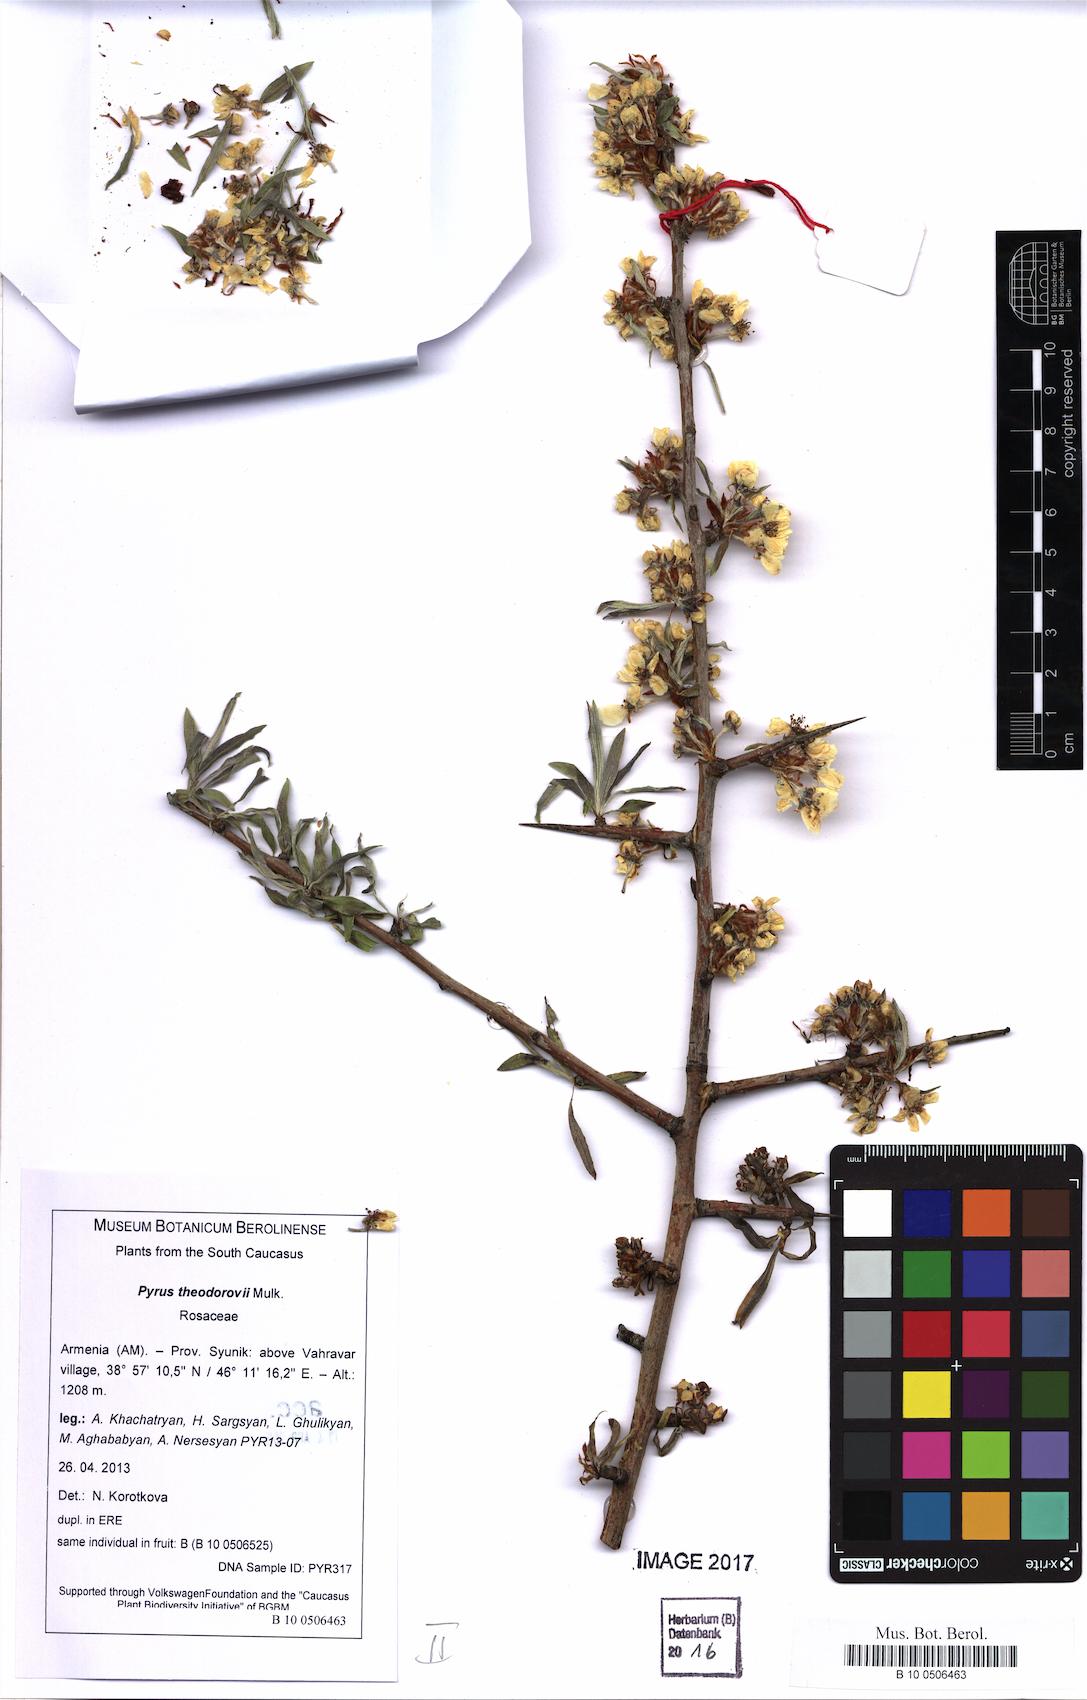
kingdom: Plantae
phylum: Tracheophyta
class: Magnoliopsida
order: Rosales
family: Rosaceae
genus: Pyrus
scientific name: Pyrus theodorovii
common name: Teodorov's pear
